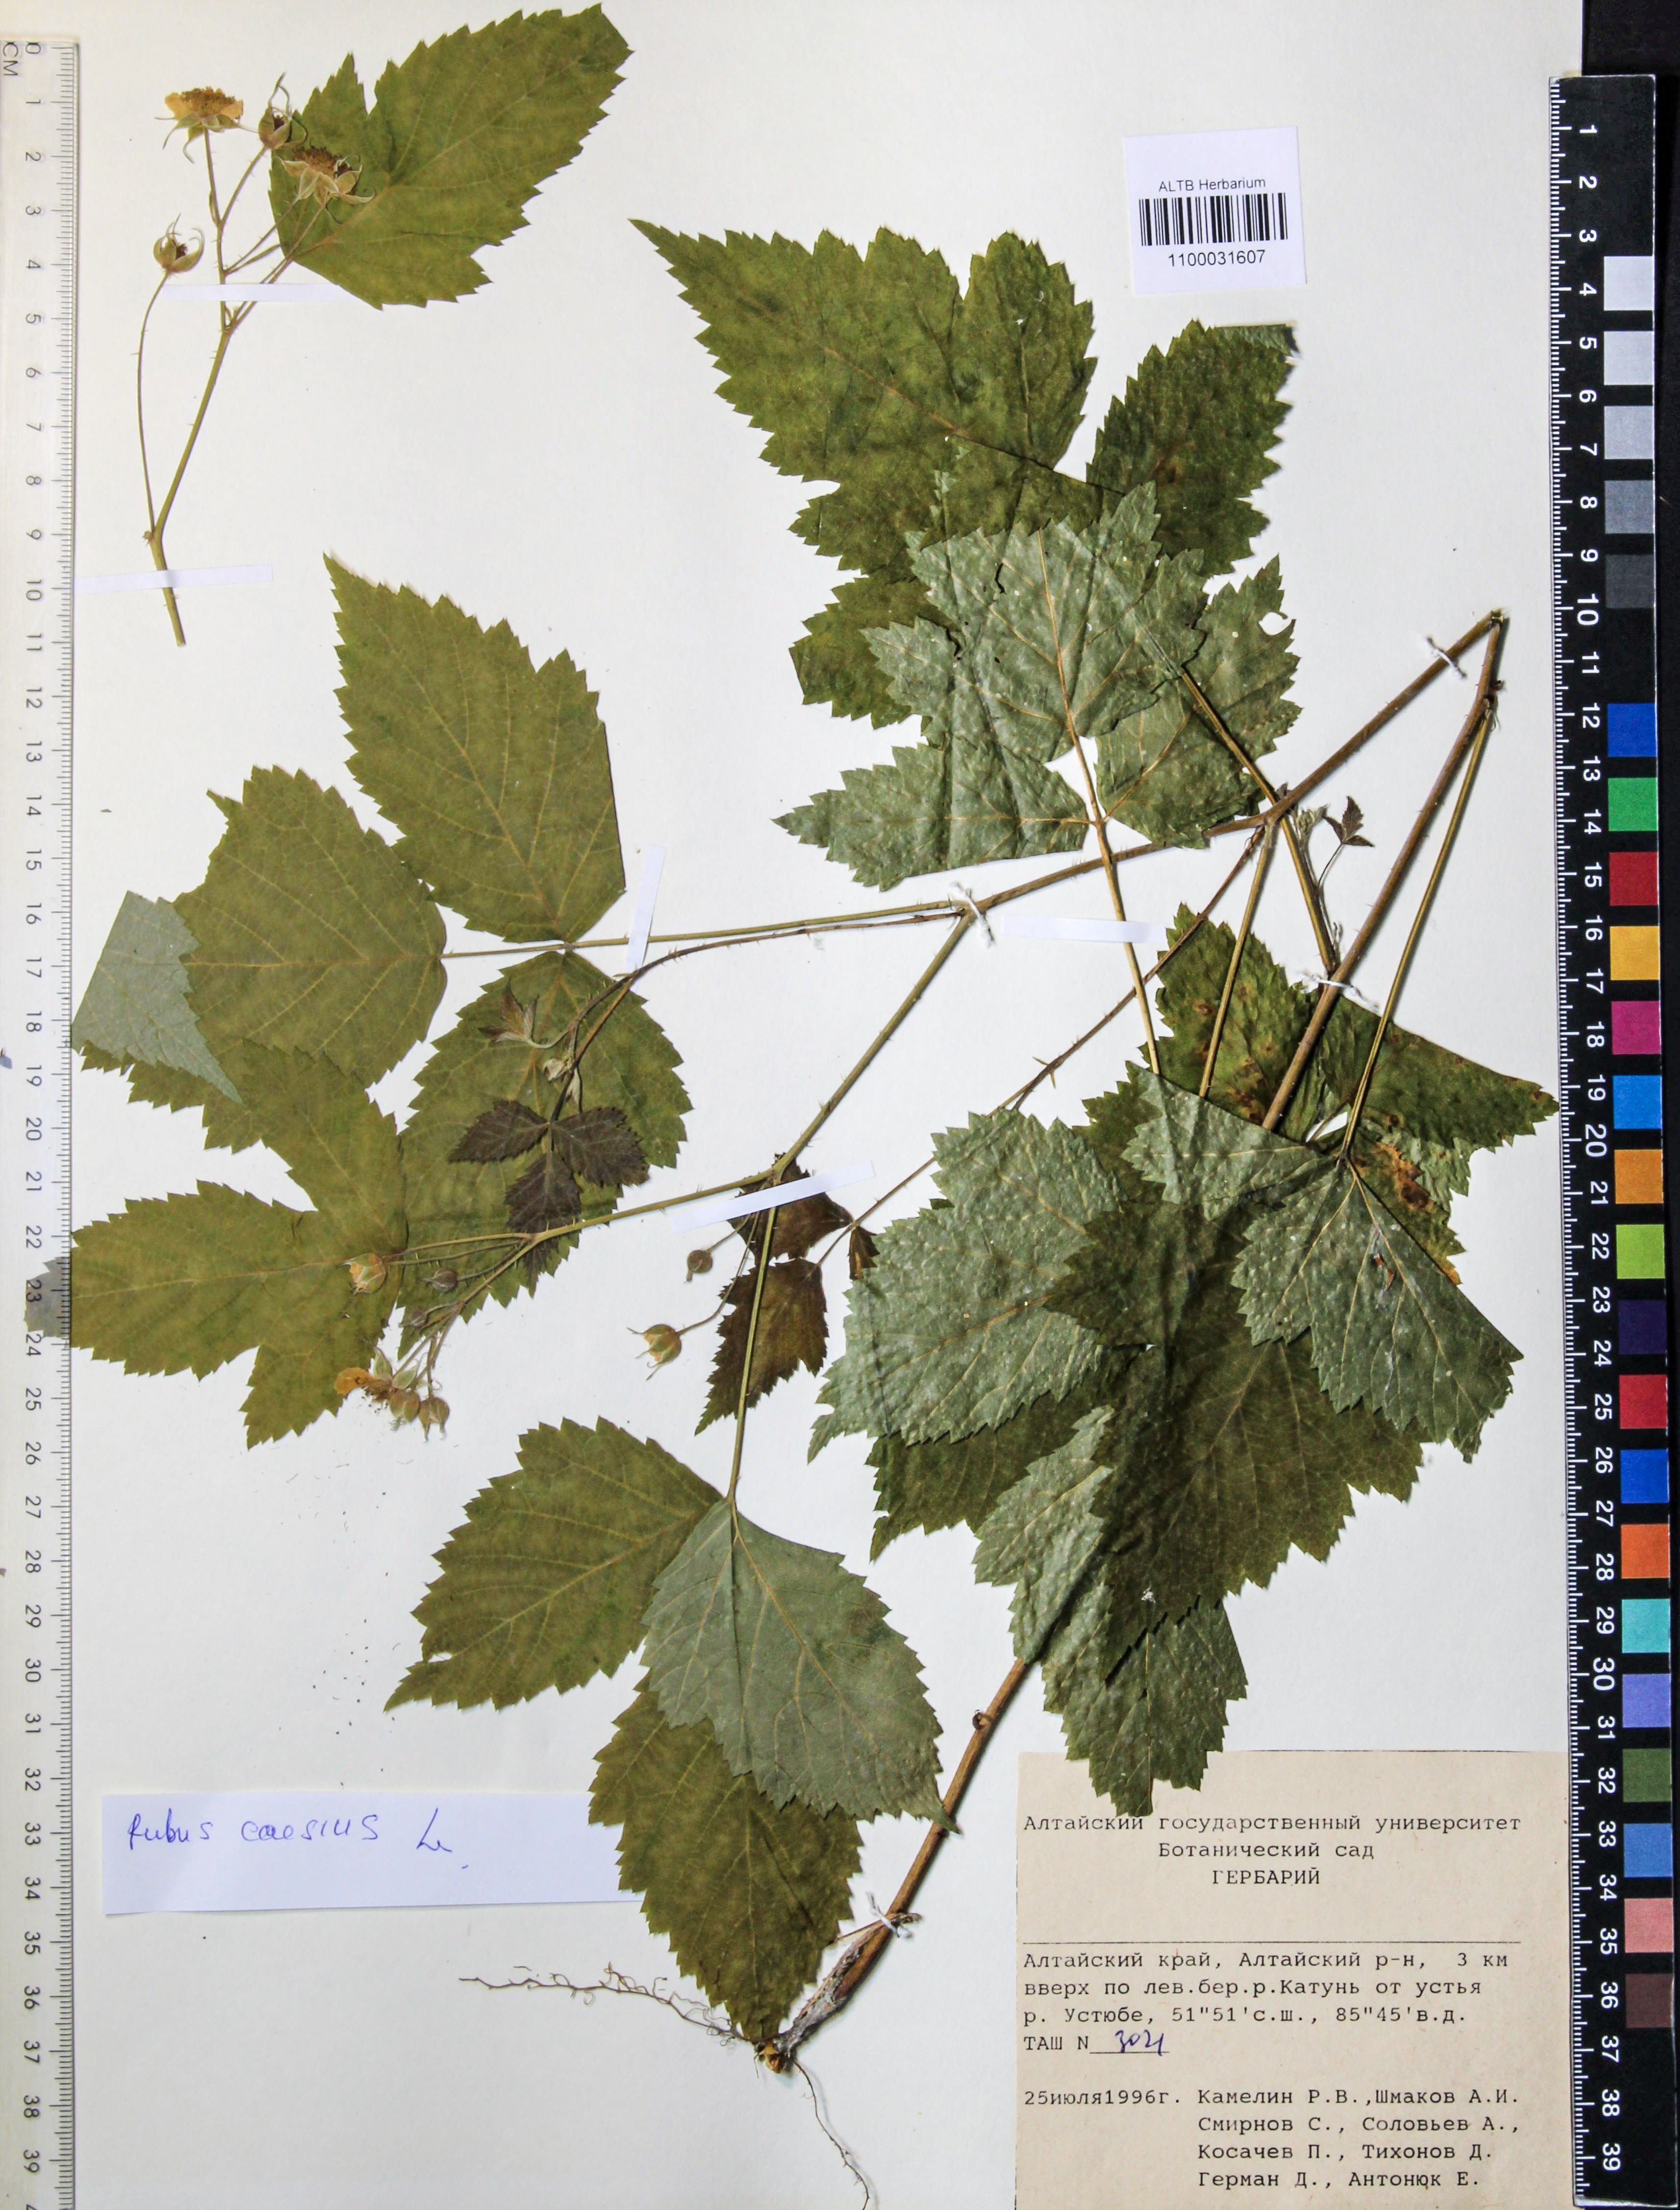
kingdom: Plantae
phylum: Tracheophyta
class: Magnoliopsida
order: Rosales
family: Rosaceae
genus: Rubus
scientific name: Rubus caesius
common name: Dewberry
